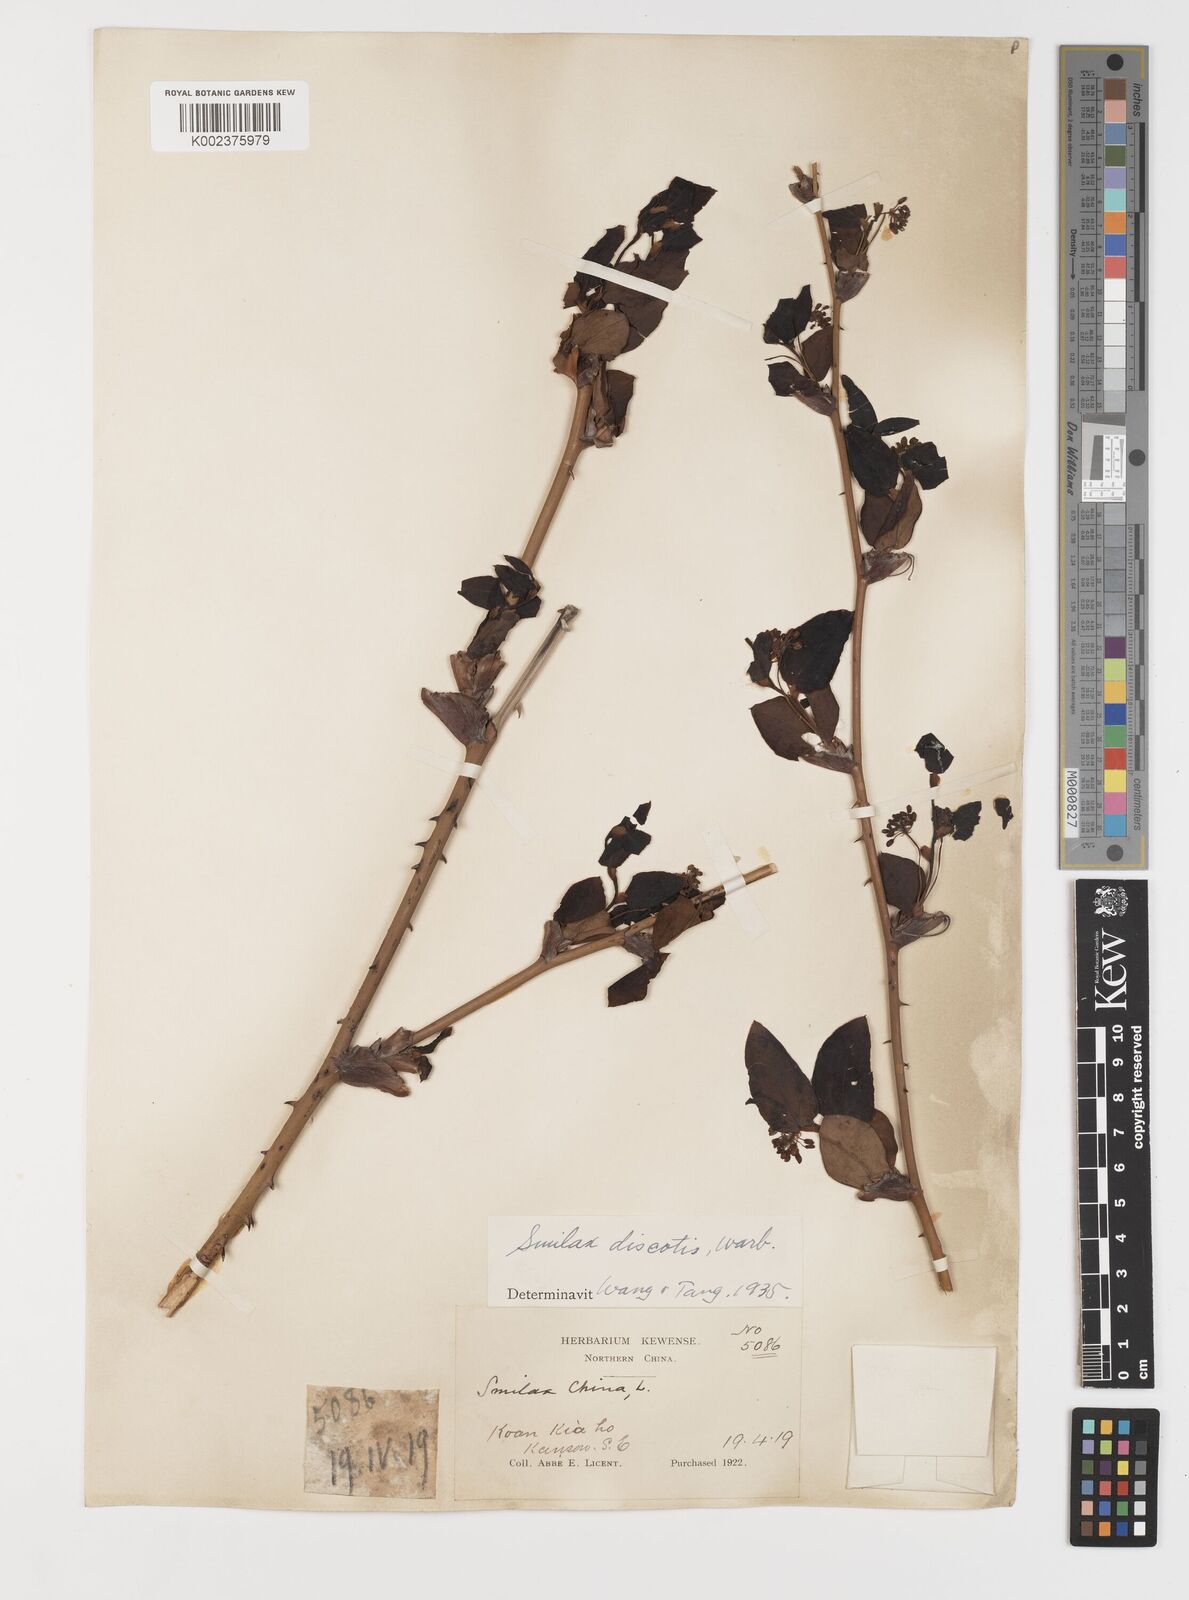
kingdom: Plantae
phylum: Tracheophyta
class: Liliopsida
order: Liliales
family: Smilacaceae
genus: Smilax
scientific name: Smilax discotis
